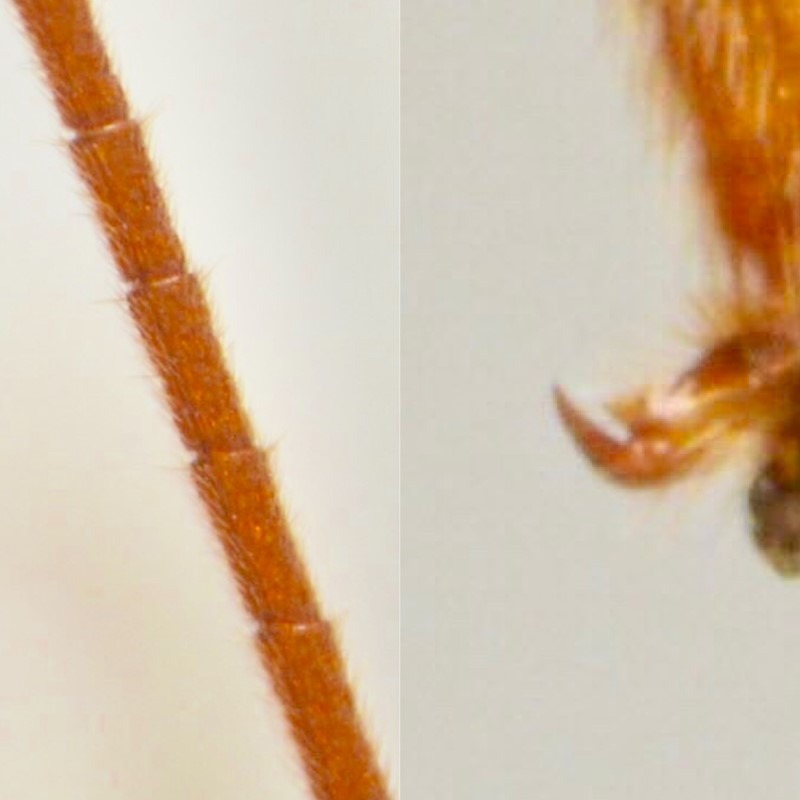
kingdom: Animalia
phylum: Arthropoda
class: Insecta
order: Hymenoptera
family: Braconidae
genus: Homolobus
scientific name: Homolobus annulicornis
